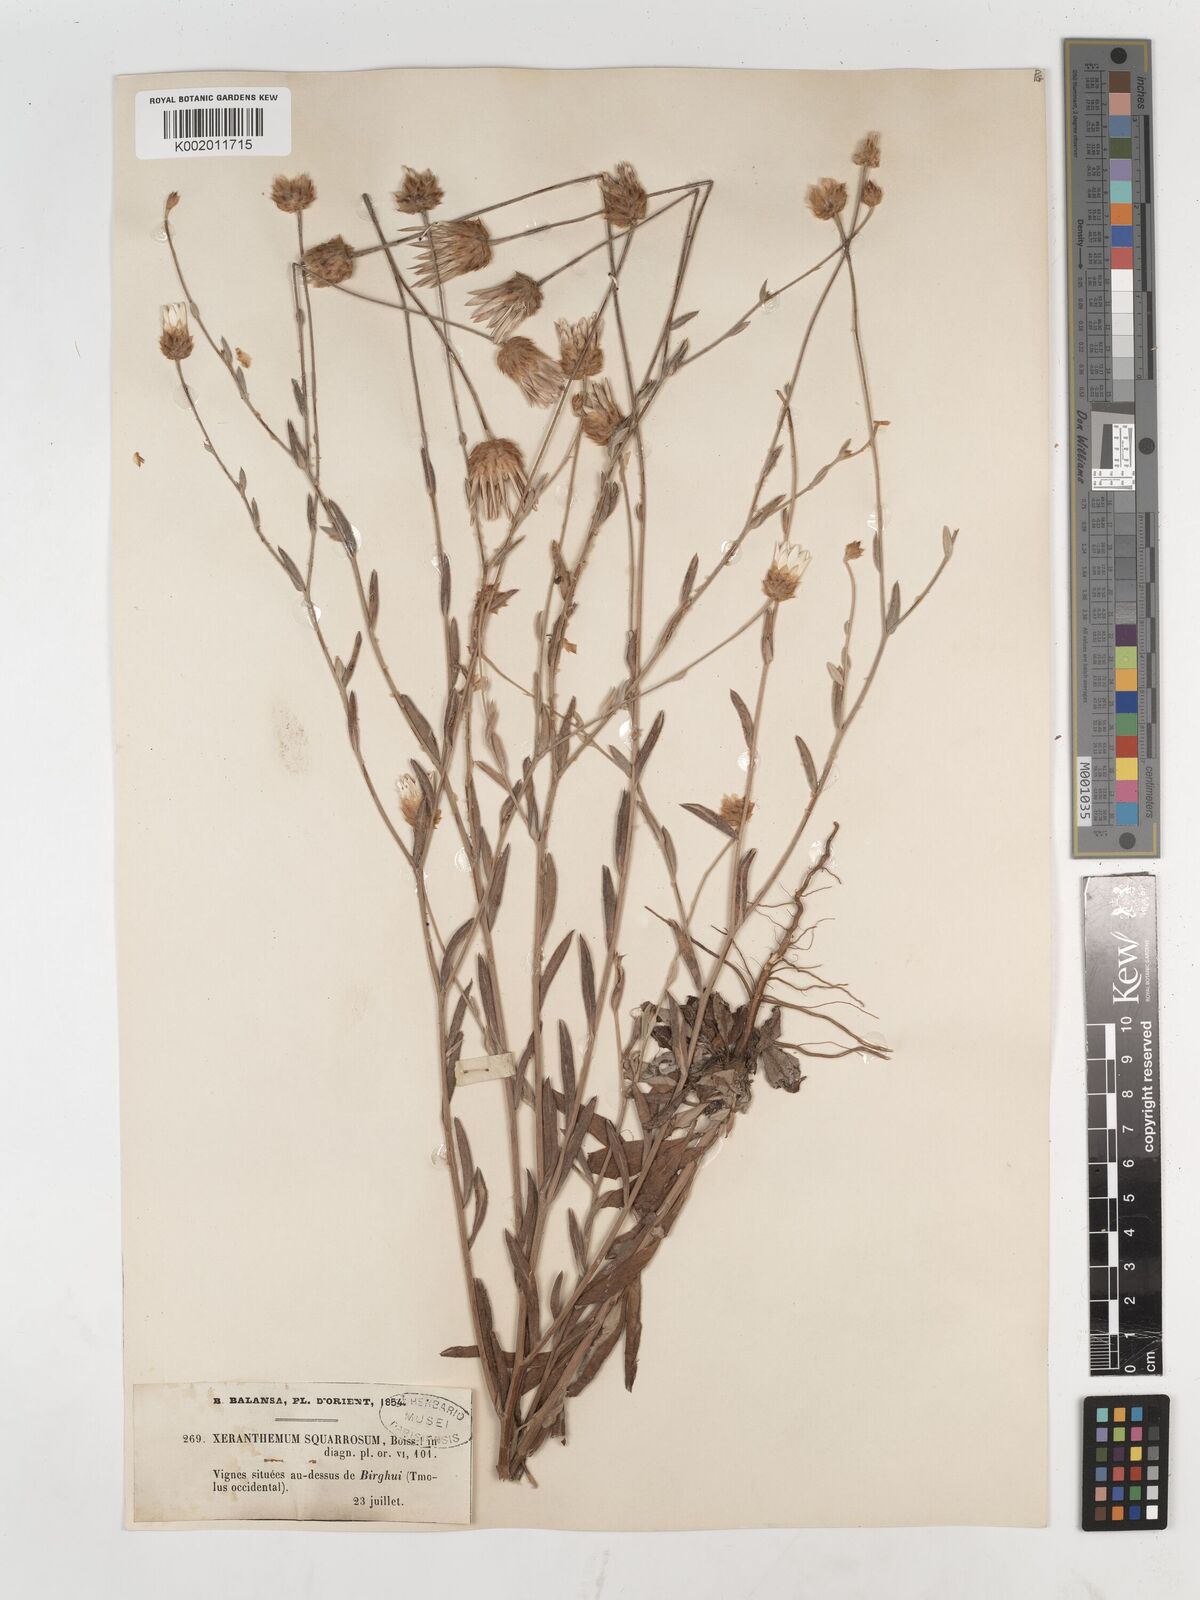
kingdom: Plantae
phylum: Tracheophyta
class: Magnoliopsida
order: Asterales
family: Asteraceae
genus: Xeranthemum
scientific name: Xeranthemum squarrosum
